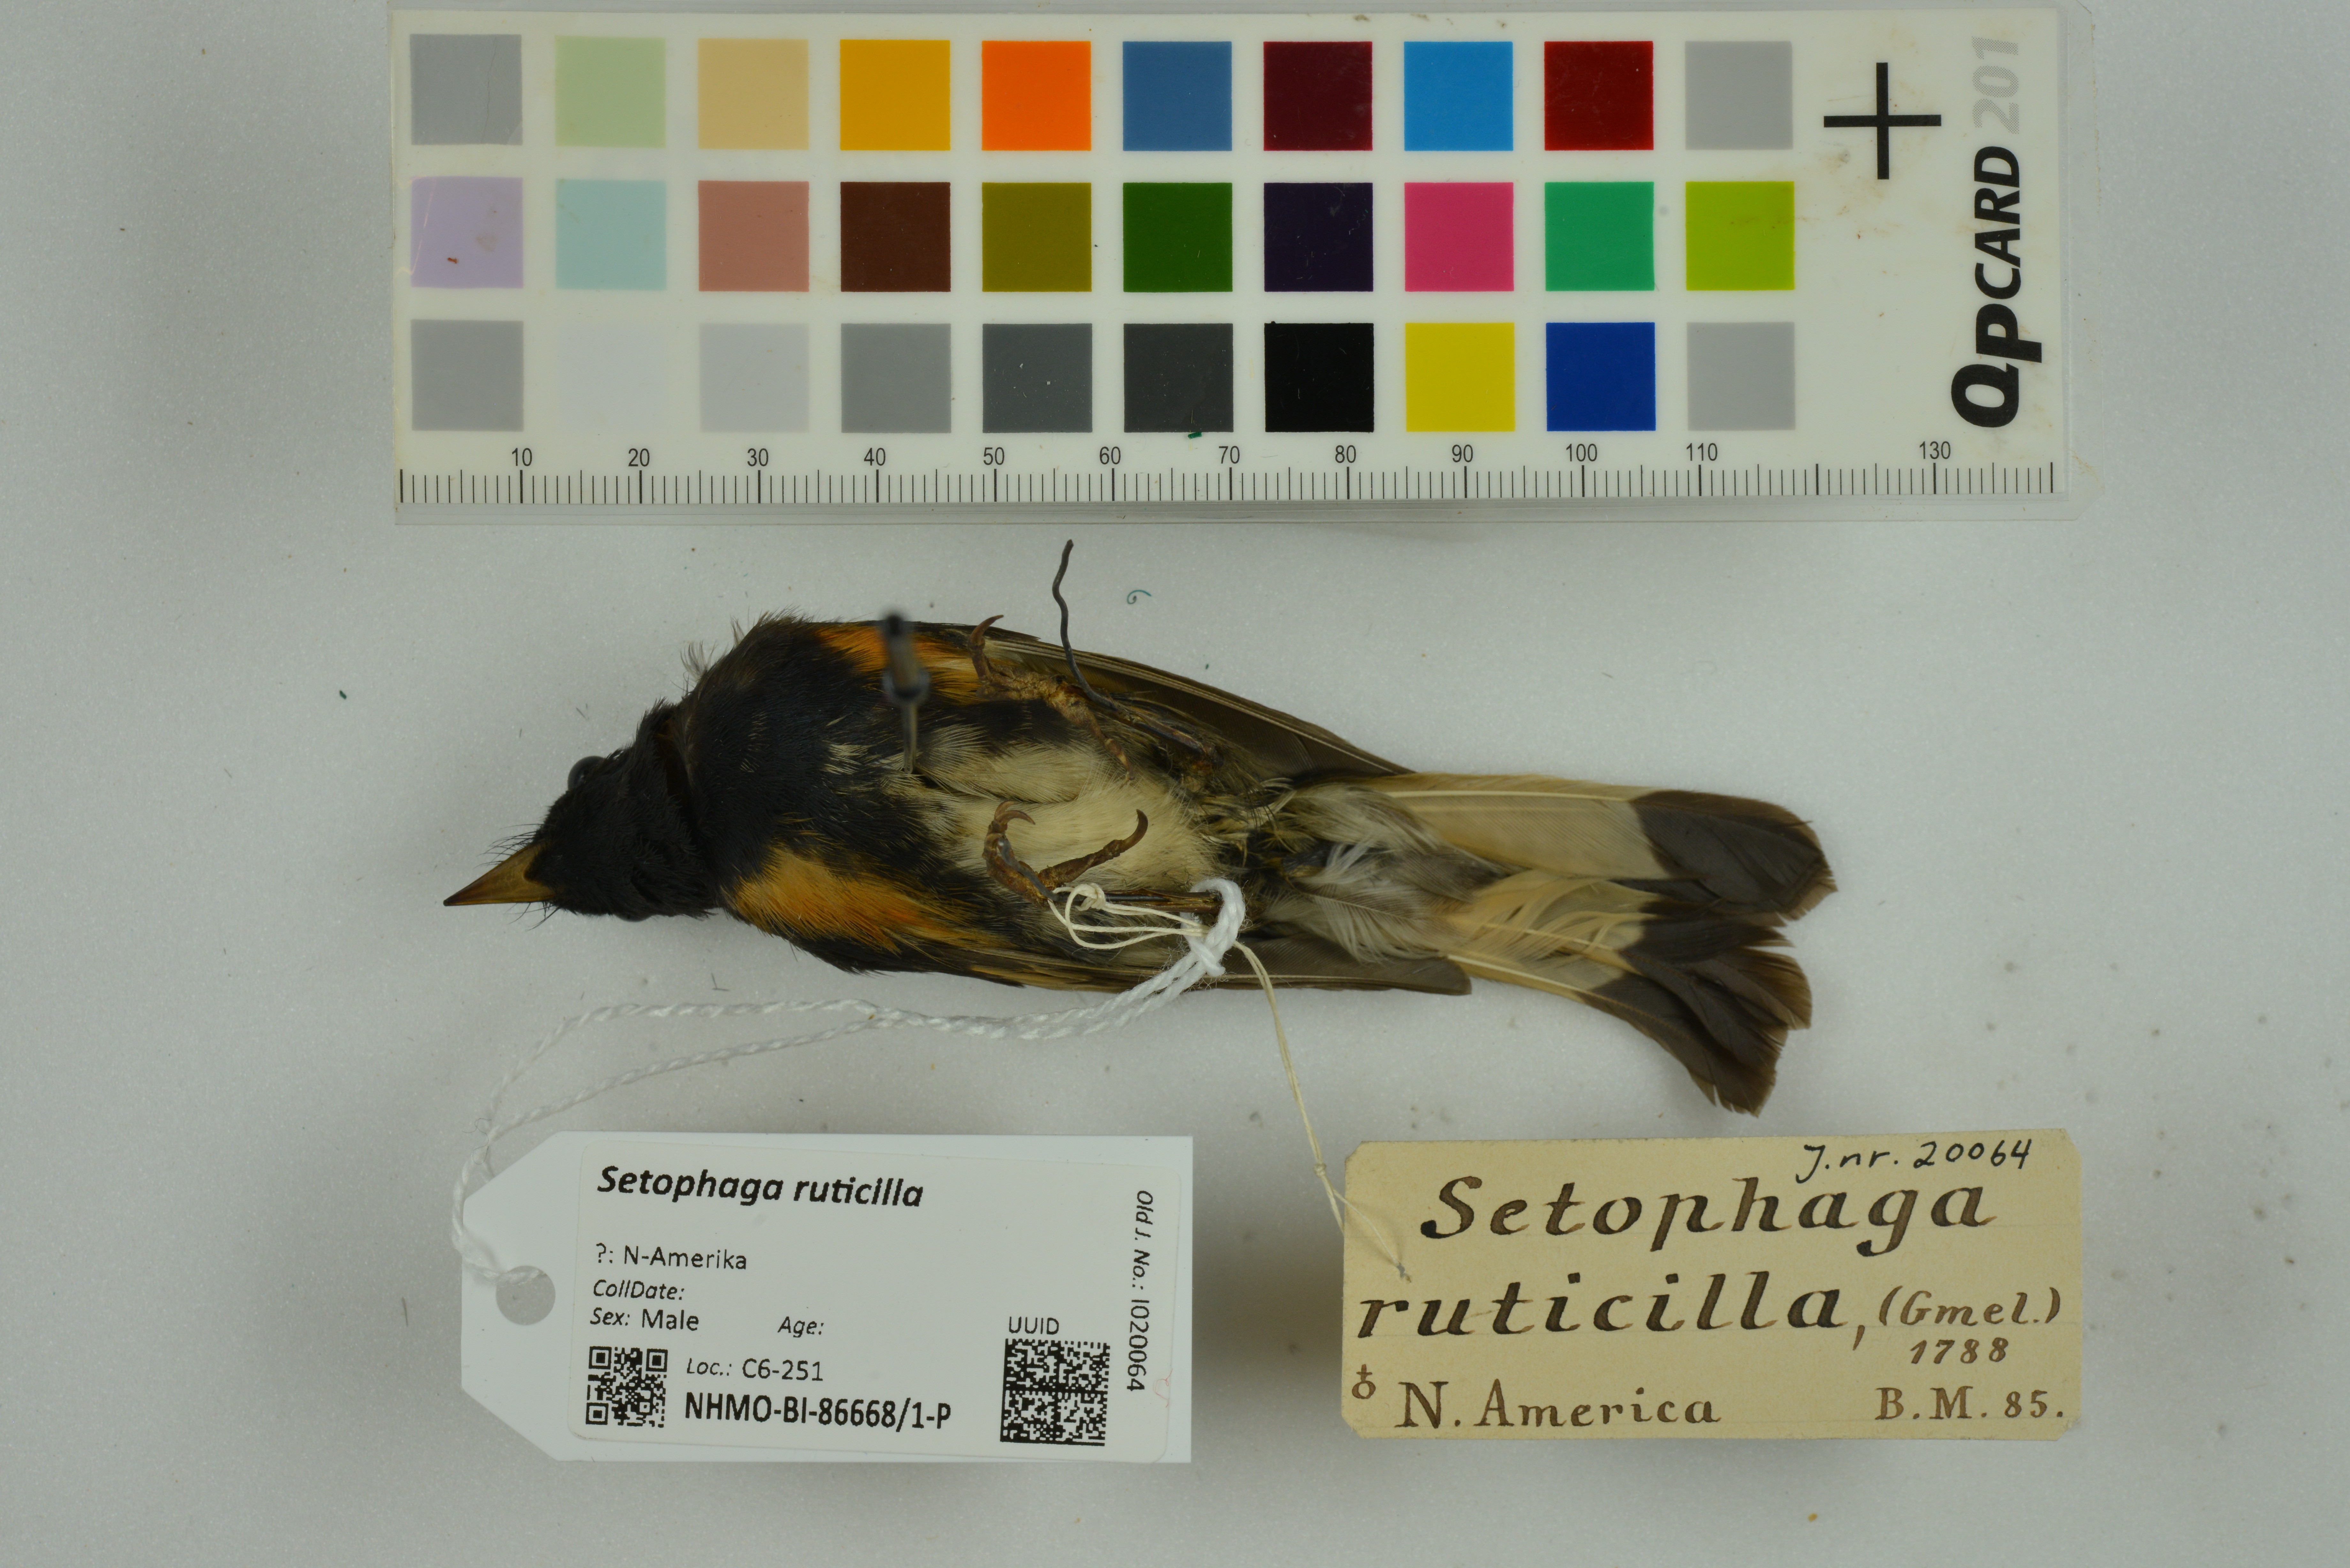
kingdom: Animalia
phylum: Chordata
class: Aves
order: Passeriformes
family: Parulidae
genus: Setophaga
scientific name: Setophaga ruticilla
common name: American redstart
